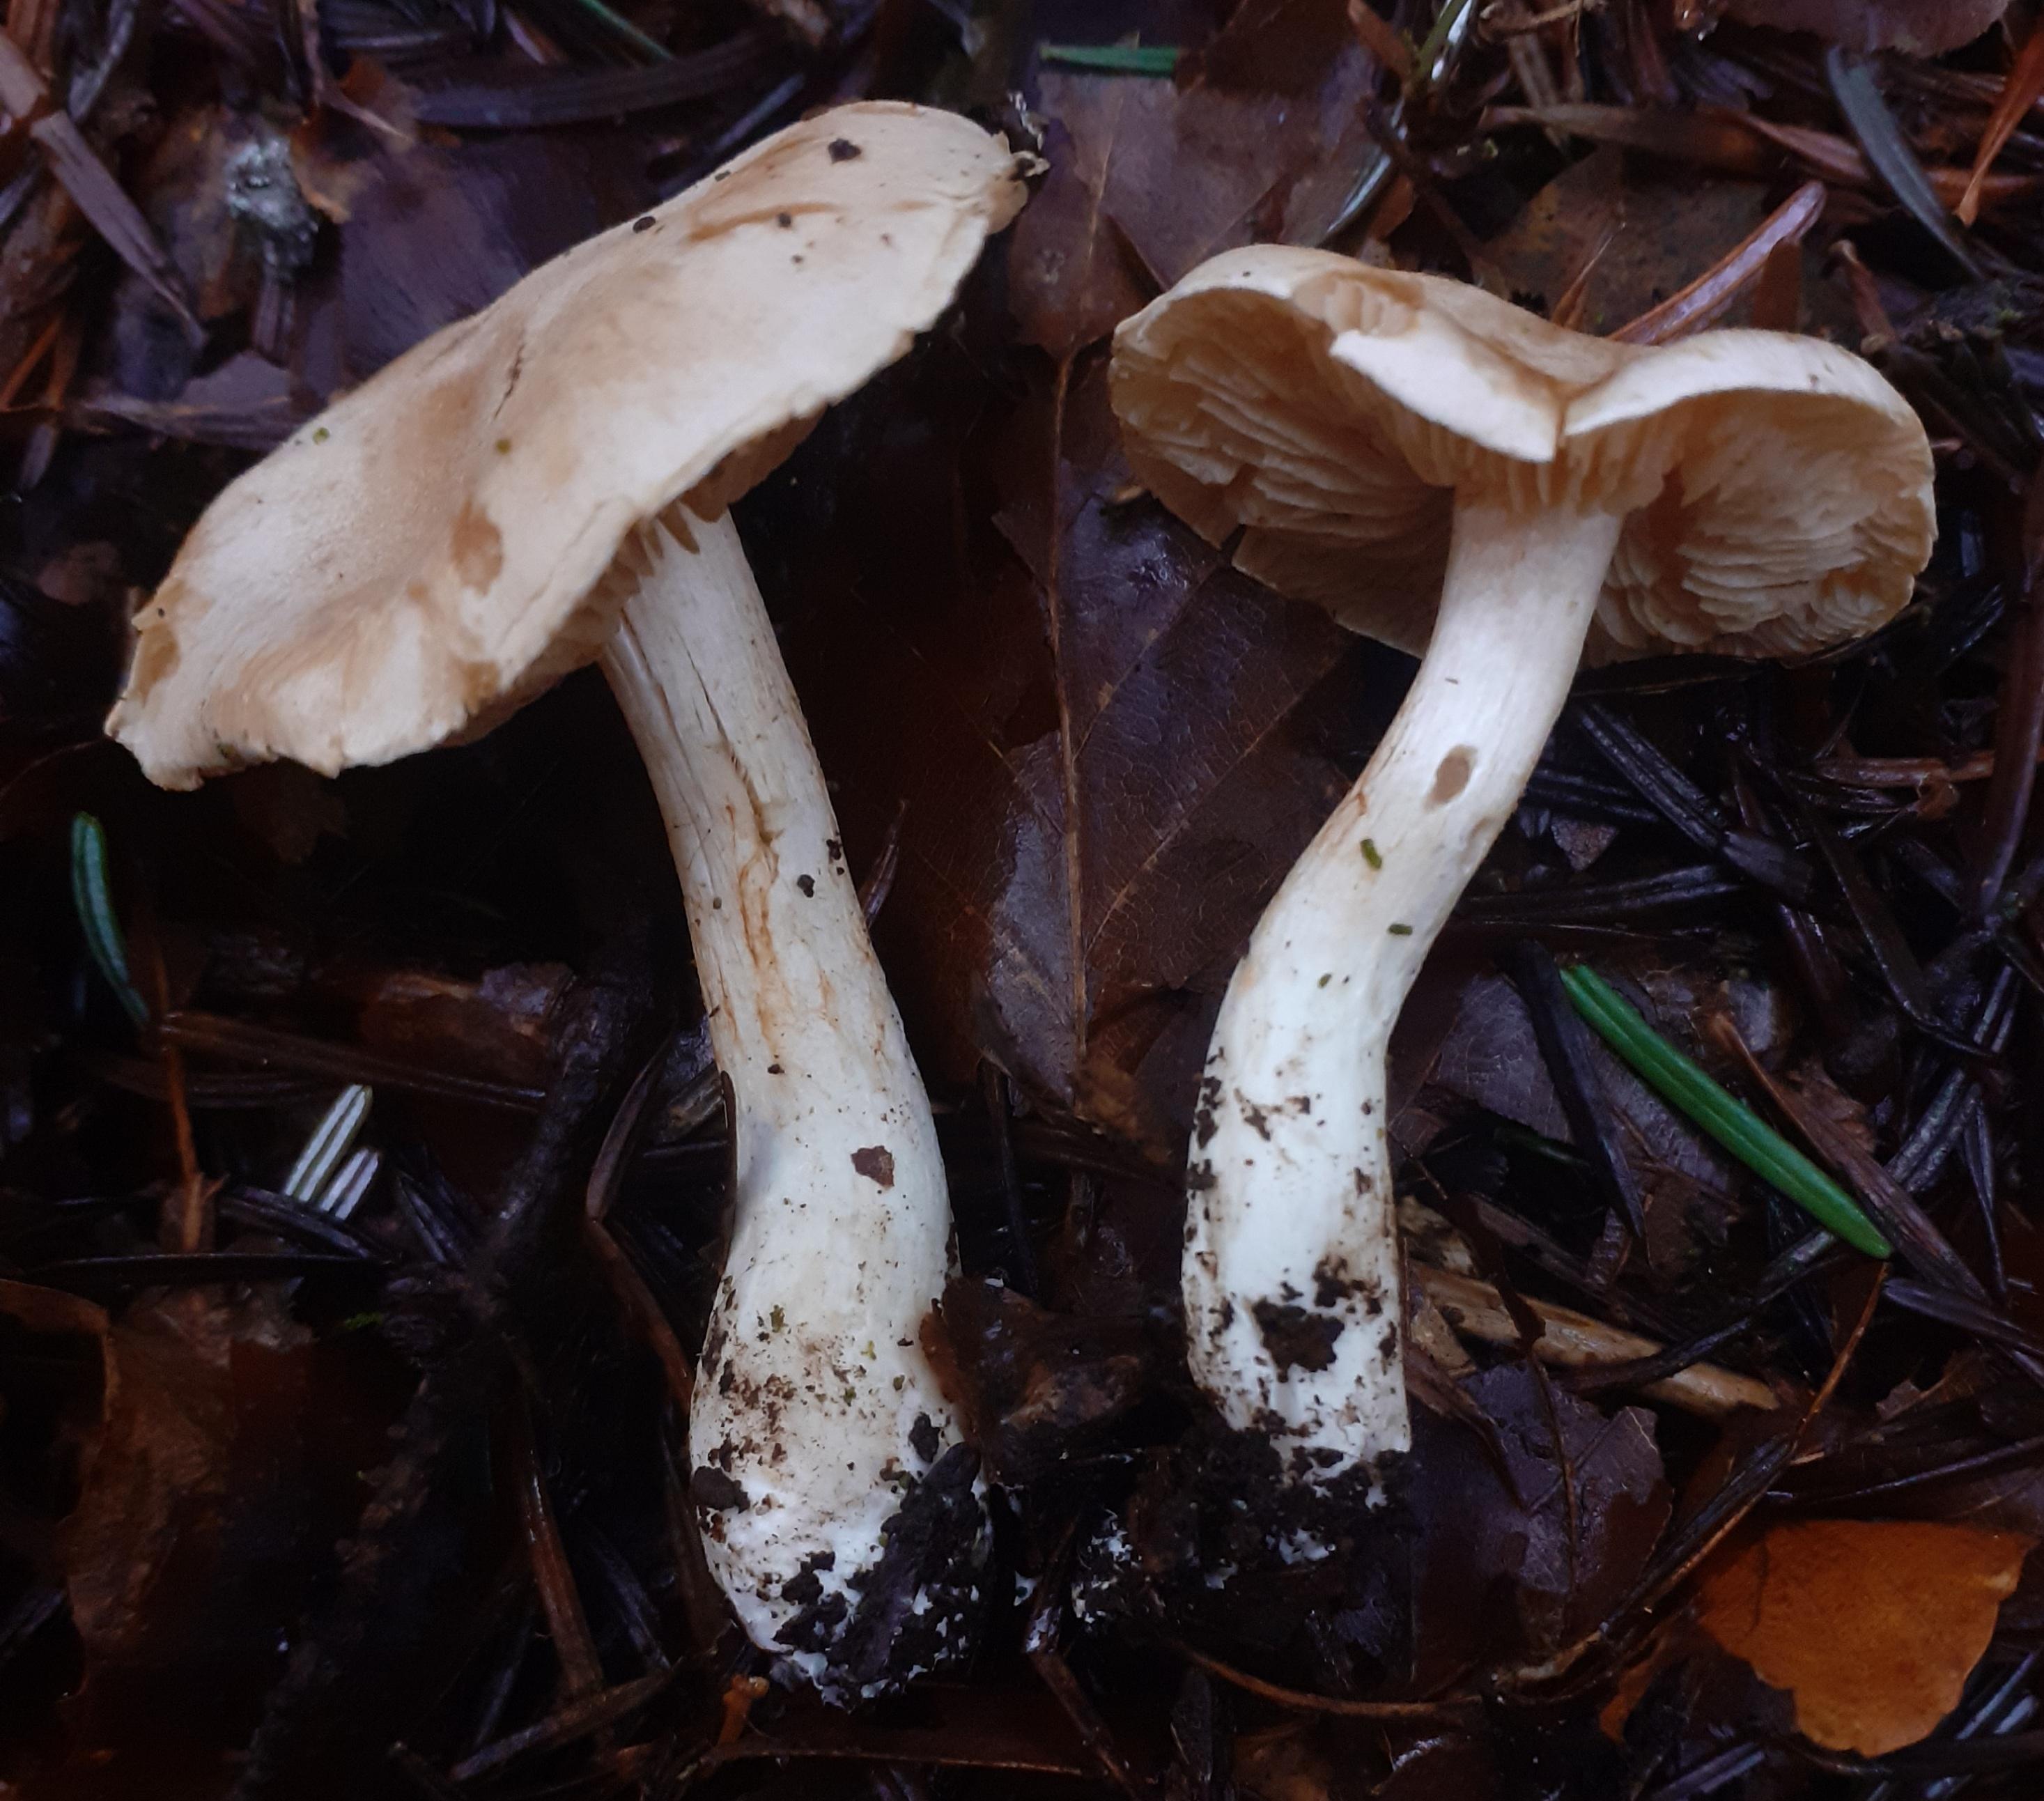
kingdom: Fungi
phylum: Basidiomycota
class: Agaricomycetes
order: Agaricales
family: Cortinariaceae
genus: Thaxterogaster
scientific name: Thaxterogaster barbatus
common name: elfenbens-slørhat
